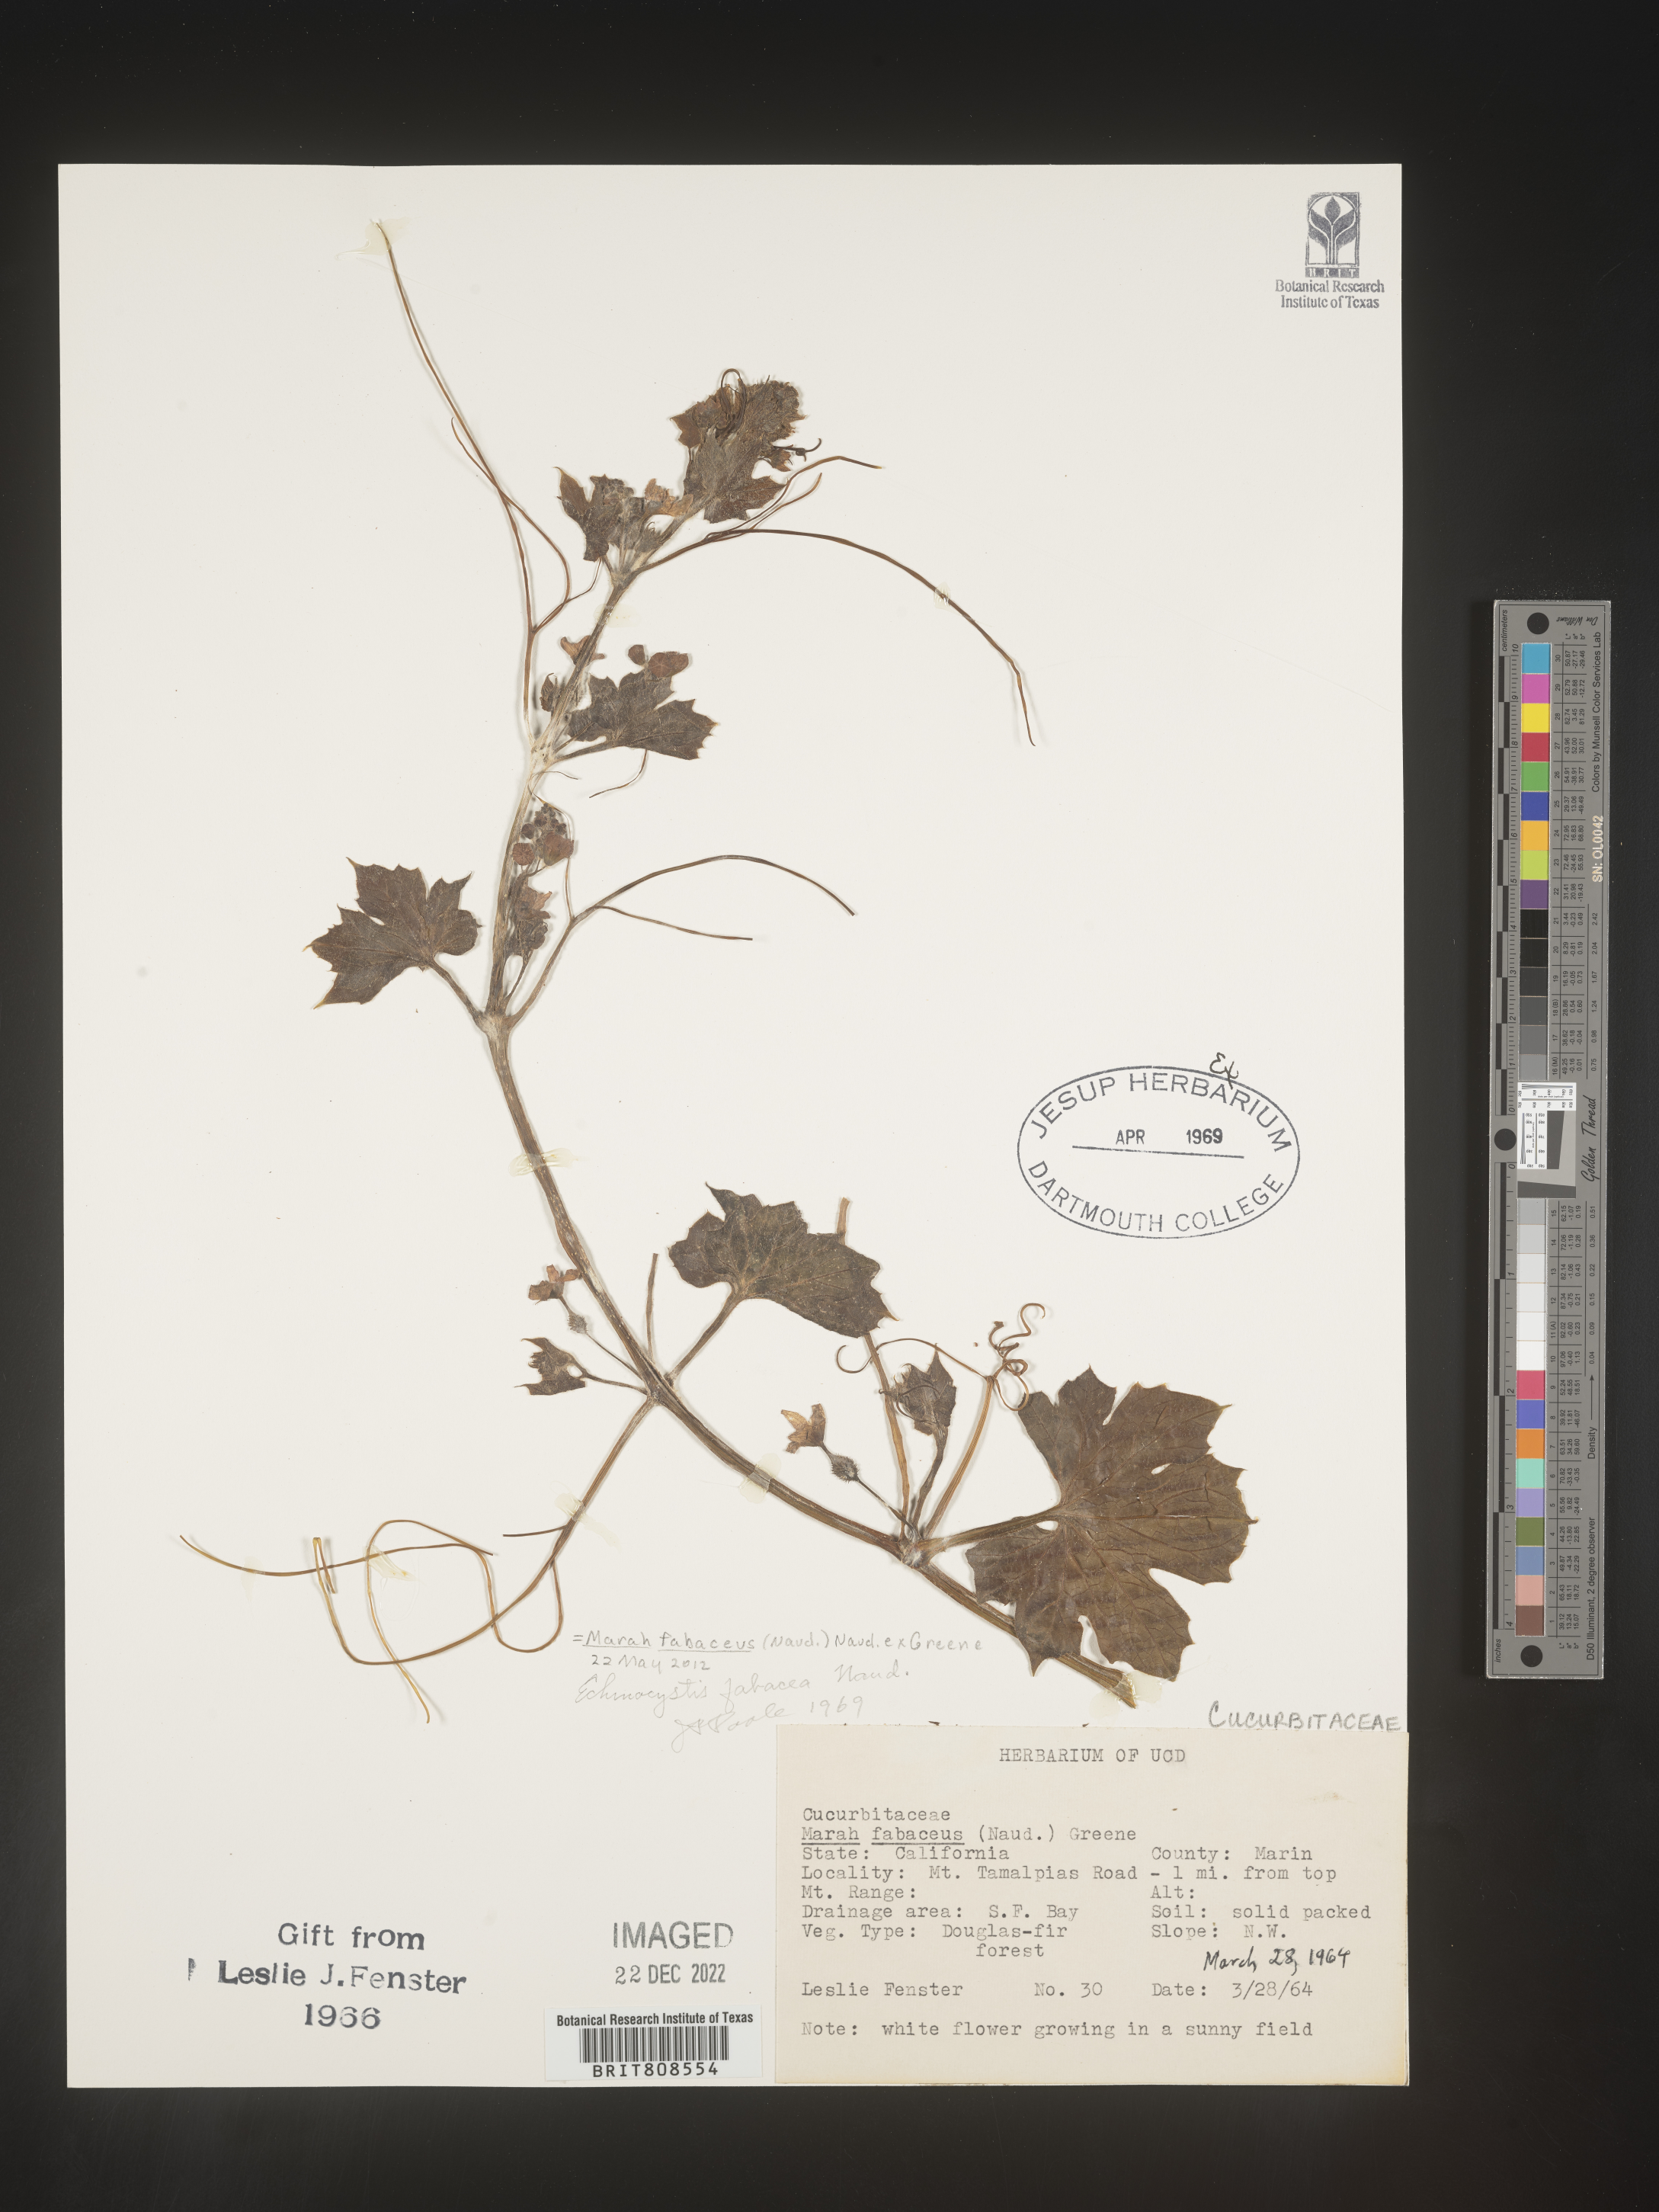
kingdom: Plantae
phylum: Tracheophyta
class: Magnoliopsida
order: Cucurbitales
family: Cucurbitaceae
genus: Marah
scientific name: Marah
